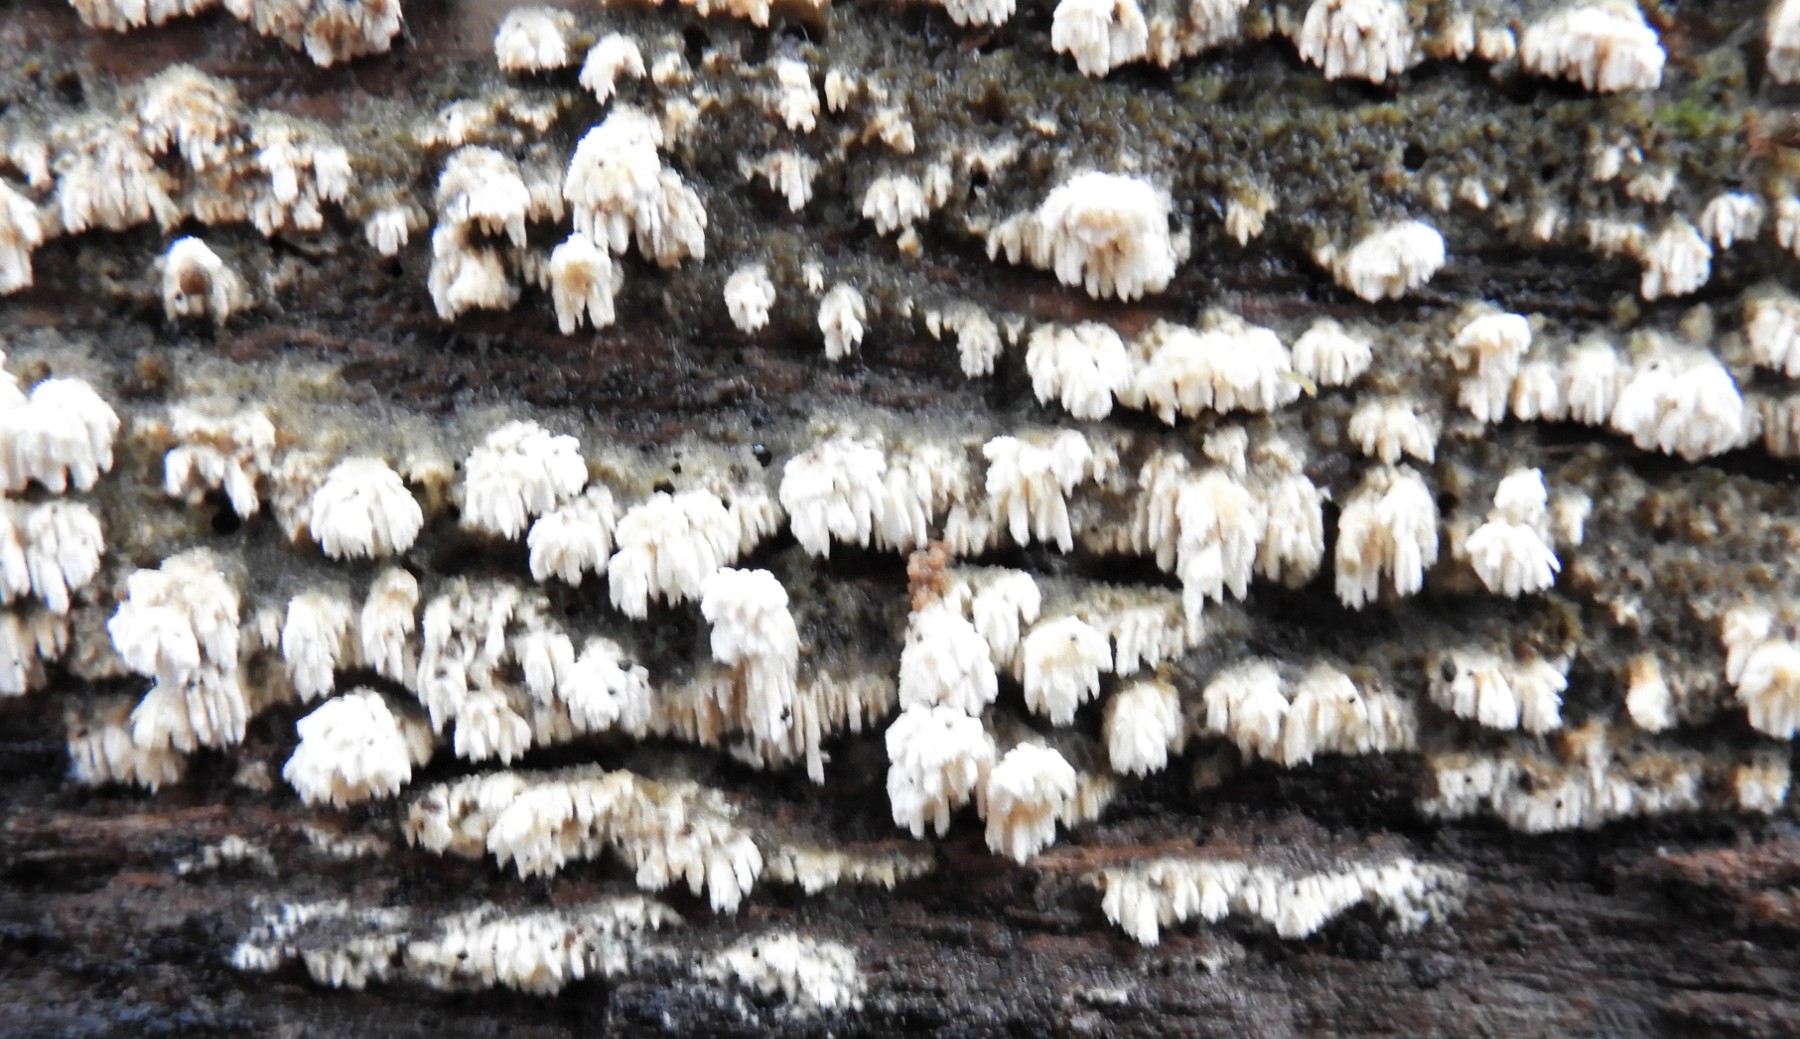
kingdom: Fungi
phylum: Basidiomycota
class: Agaricomycetes
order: Hymenochaetales
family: Schizoporaceae
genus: Schizopora
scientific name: Schizopora paradoxa
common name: hvid tandsvamp
